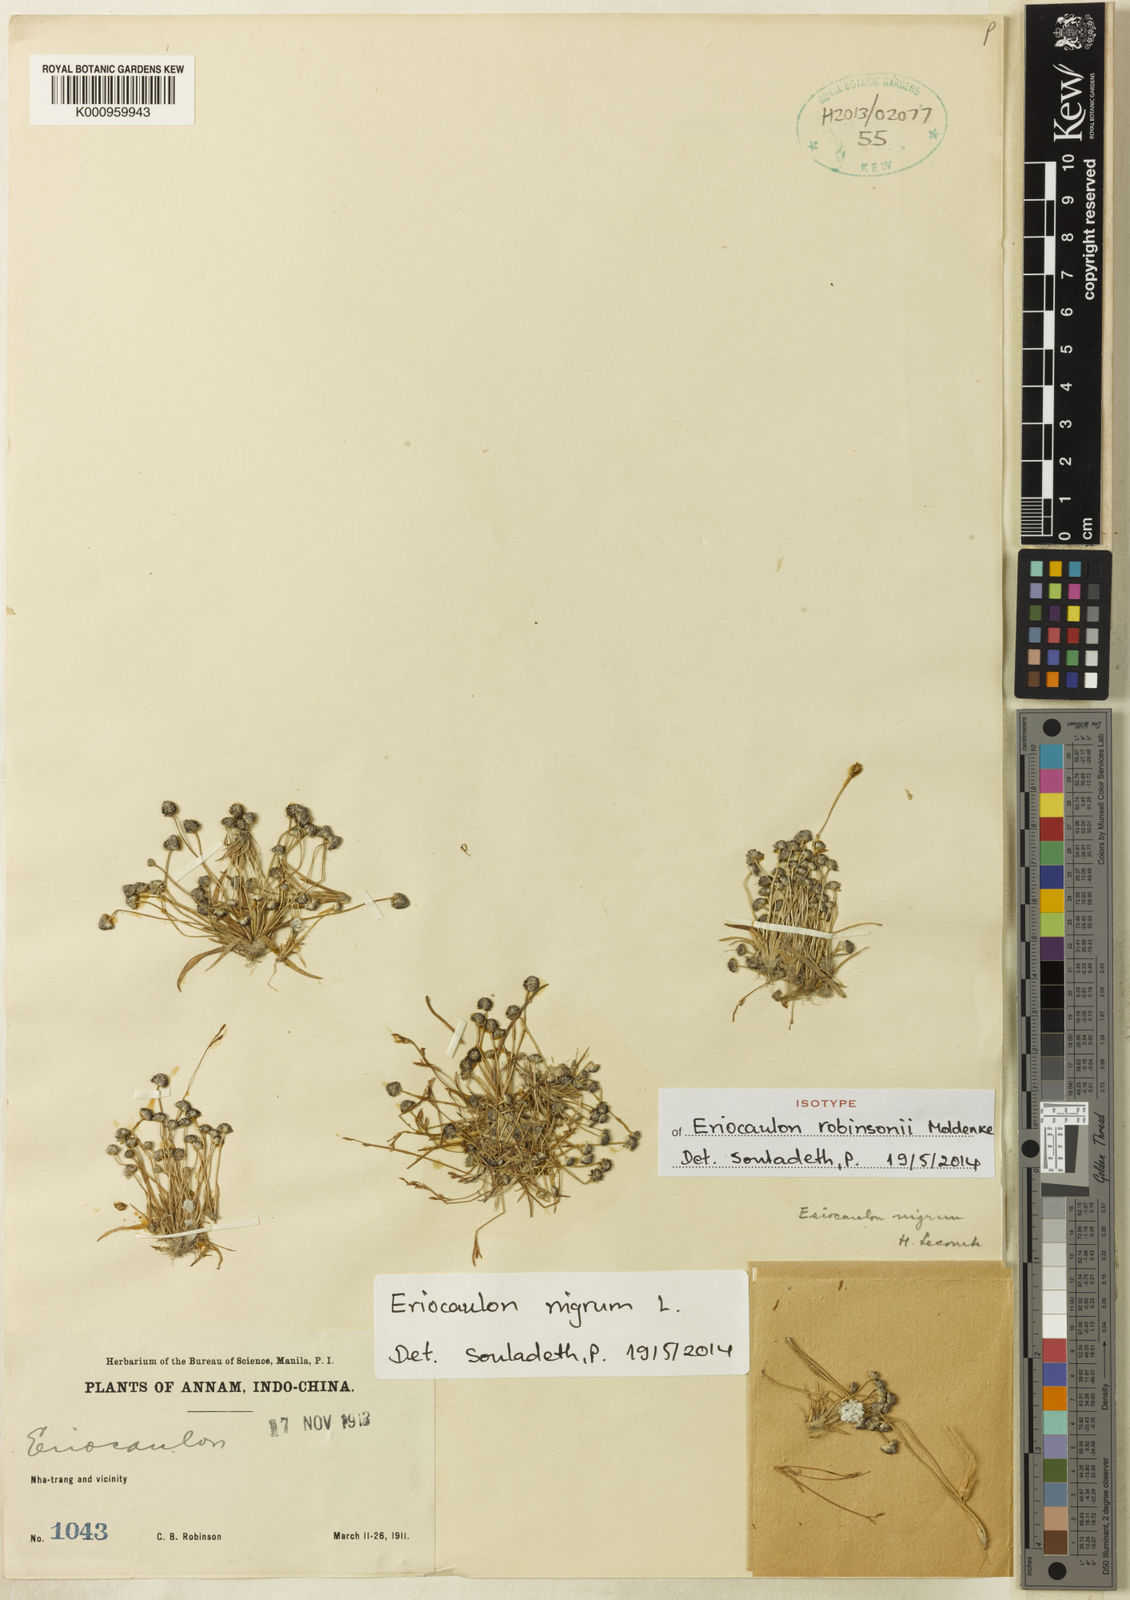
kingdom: Plantae
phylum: Tracheophyta
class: Liliopsida
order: Poales
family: Eriocaulaceae
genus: Eriocaulon
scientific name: Eriocaulon nigrum
